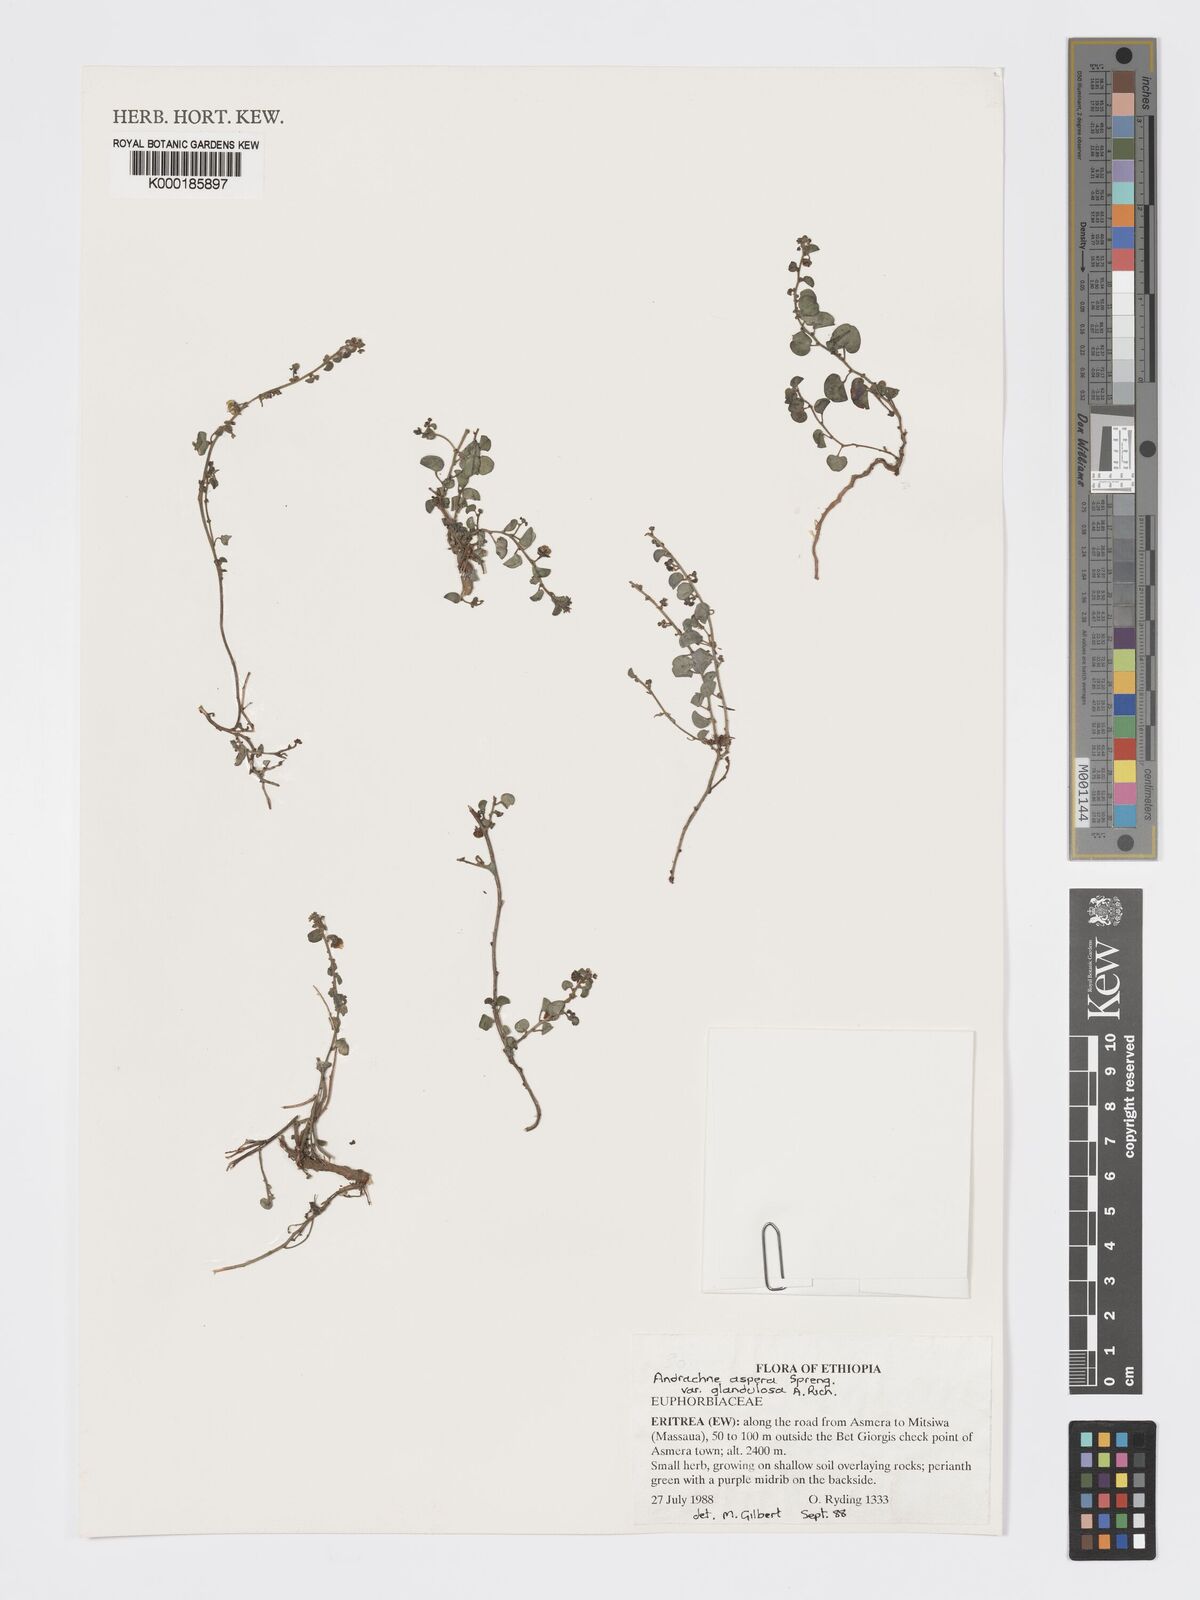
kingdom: Plantae
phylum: Tracheophyta
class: Magnoliopsida
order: Malpighiales
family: Phyllanthaceae
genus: Andrachne
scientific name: Andrachne aspera
